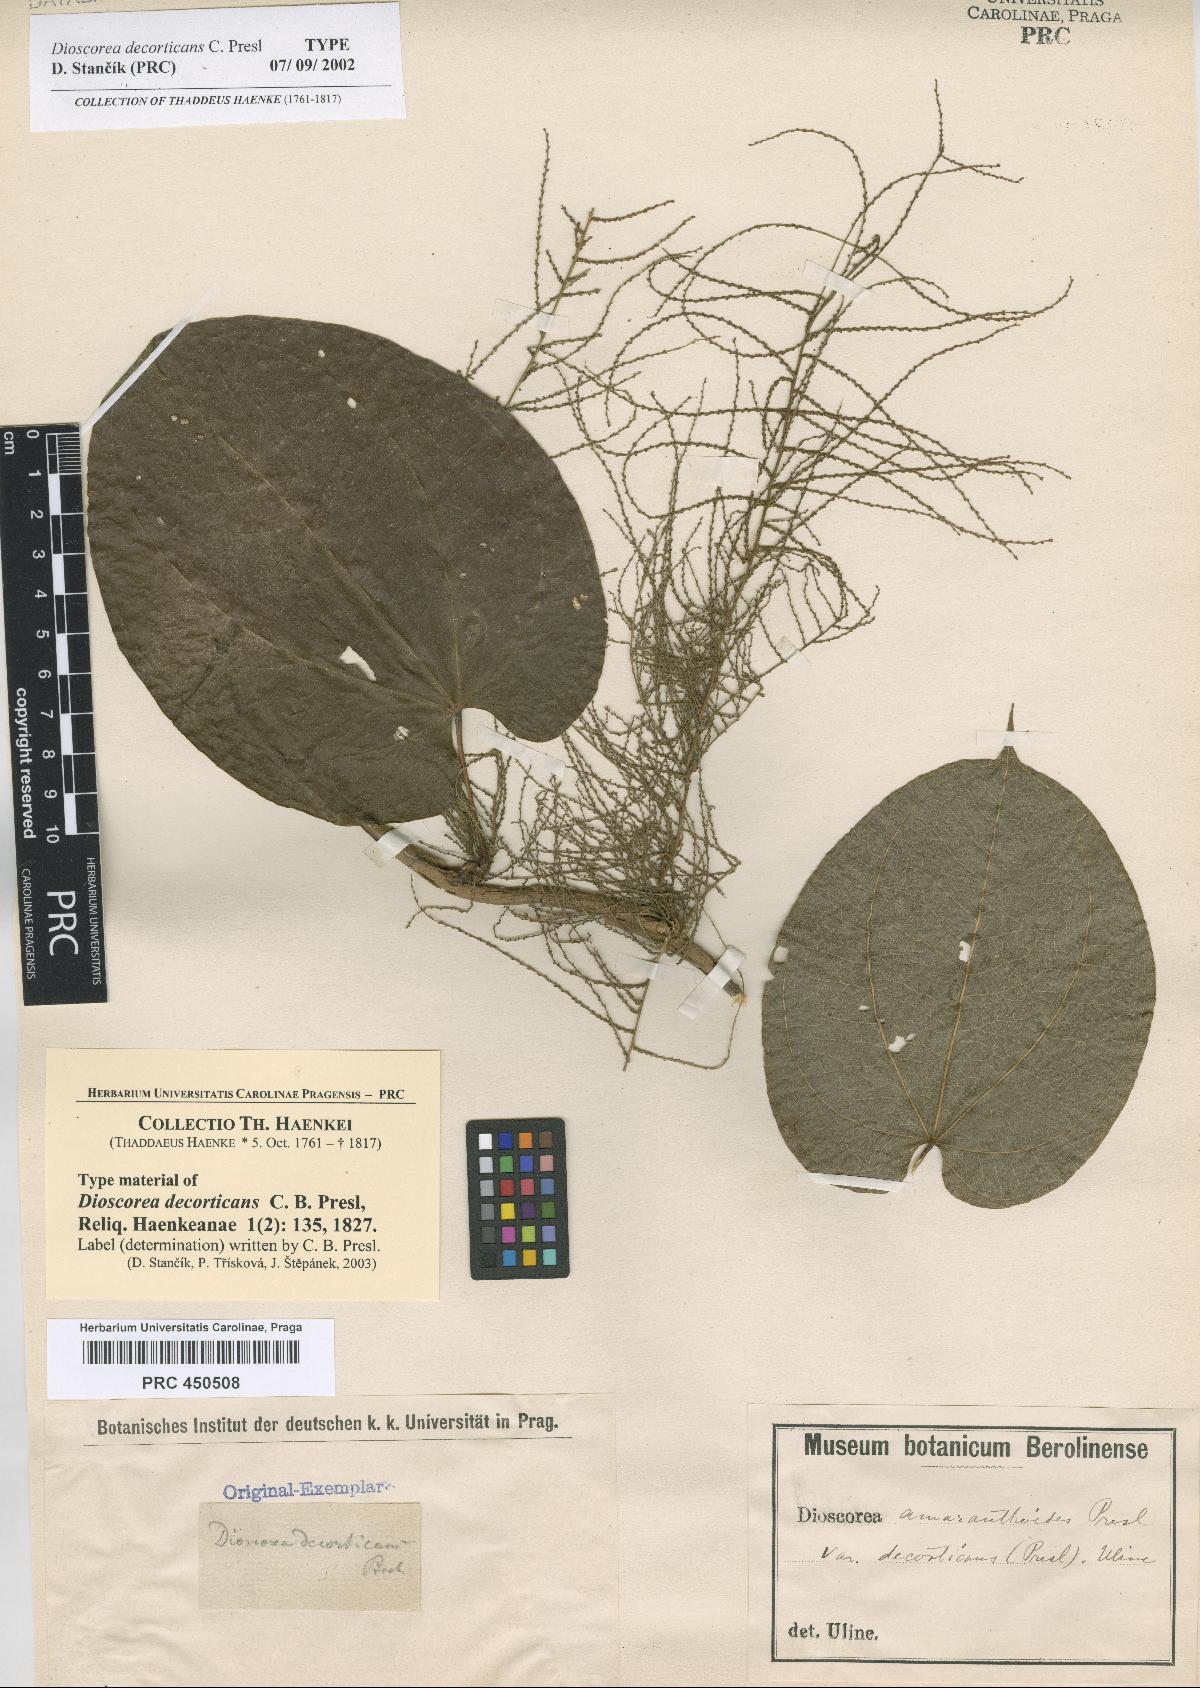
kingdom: Plantae
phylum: Tracheophyta
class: Liliopsida
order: Dioscoreales
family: Dioscoreaceae
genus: Dioscorea
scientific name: Dioscorea decorticans
